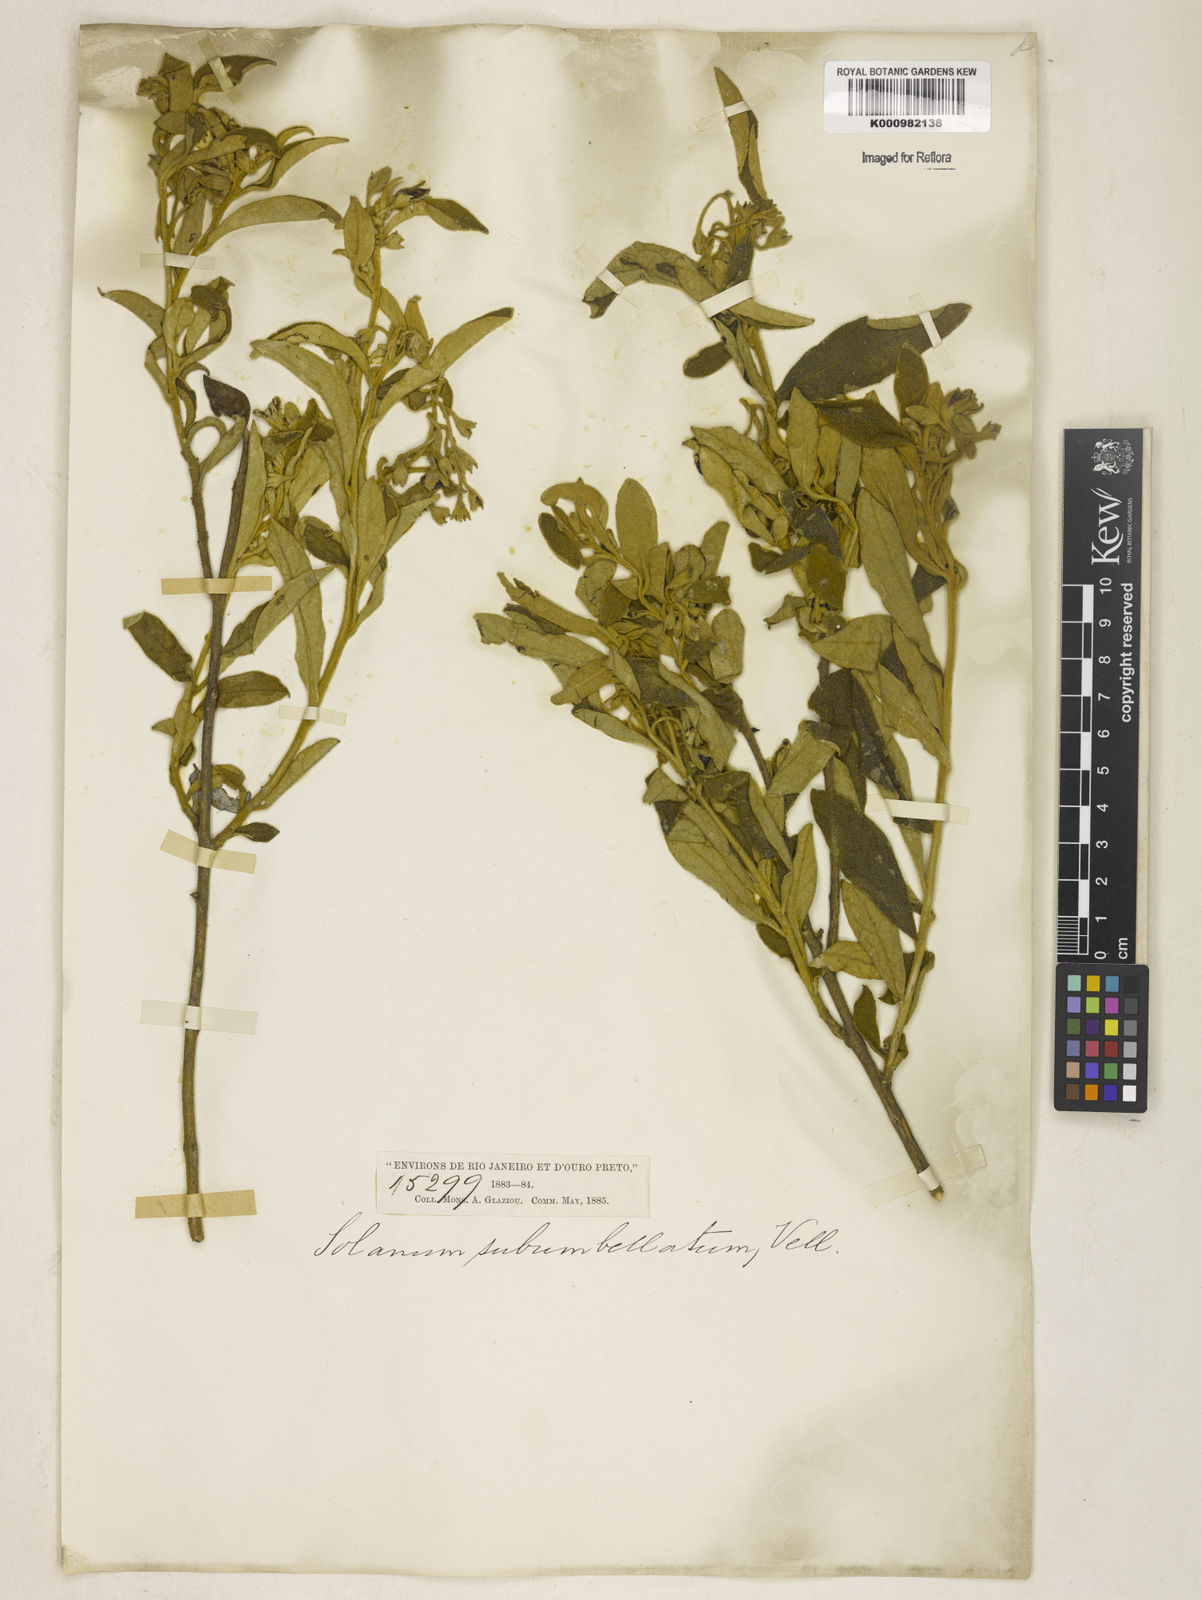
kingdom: Plantae
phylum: Tracheophyta
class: Magnoliopsida
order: Solanales
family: Solanaceae
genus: Solanum
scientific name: Solanum subumbellatum
